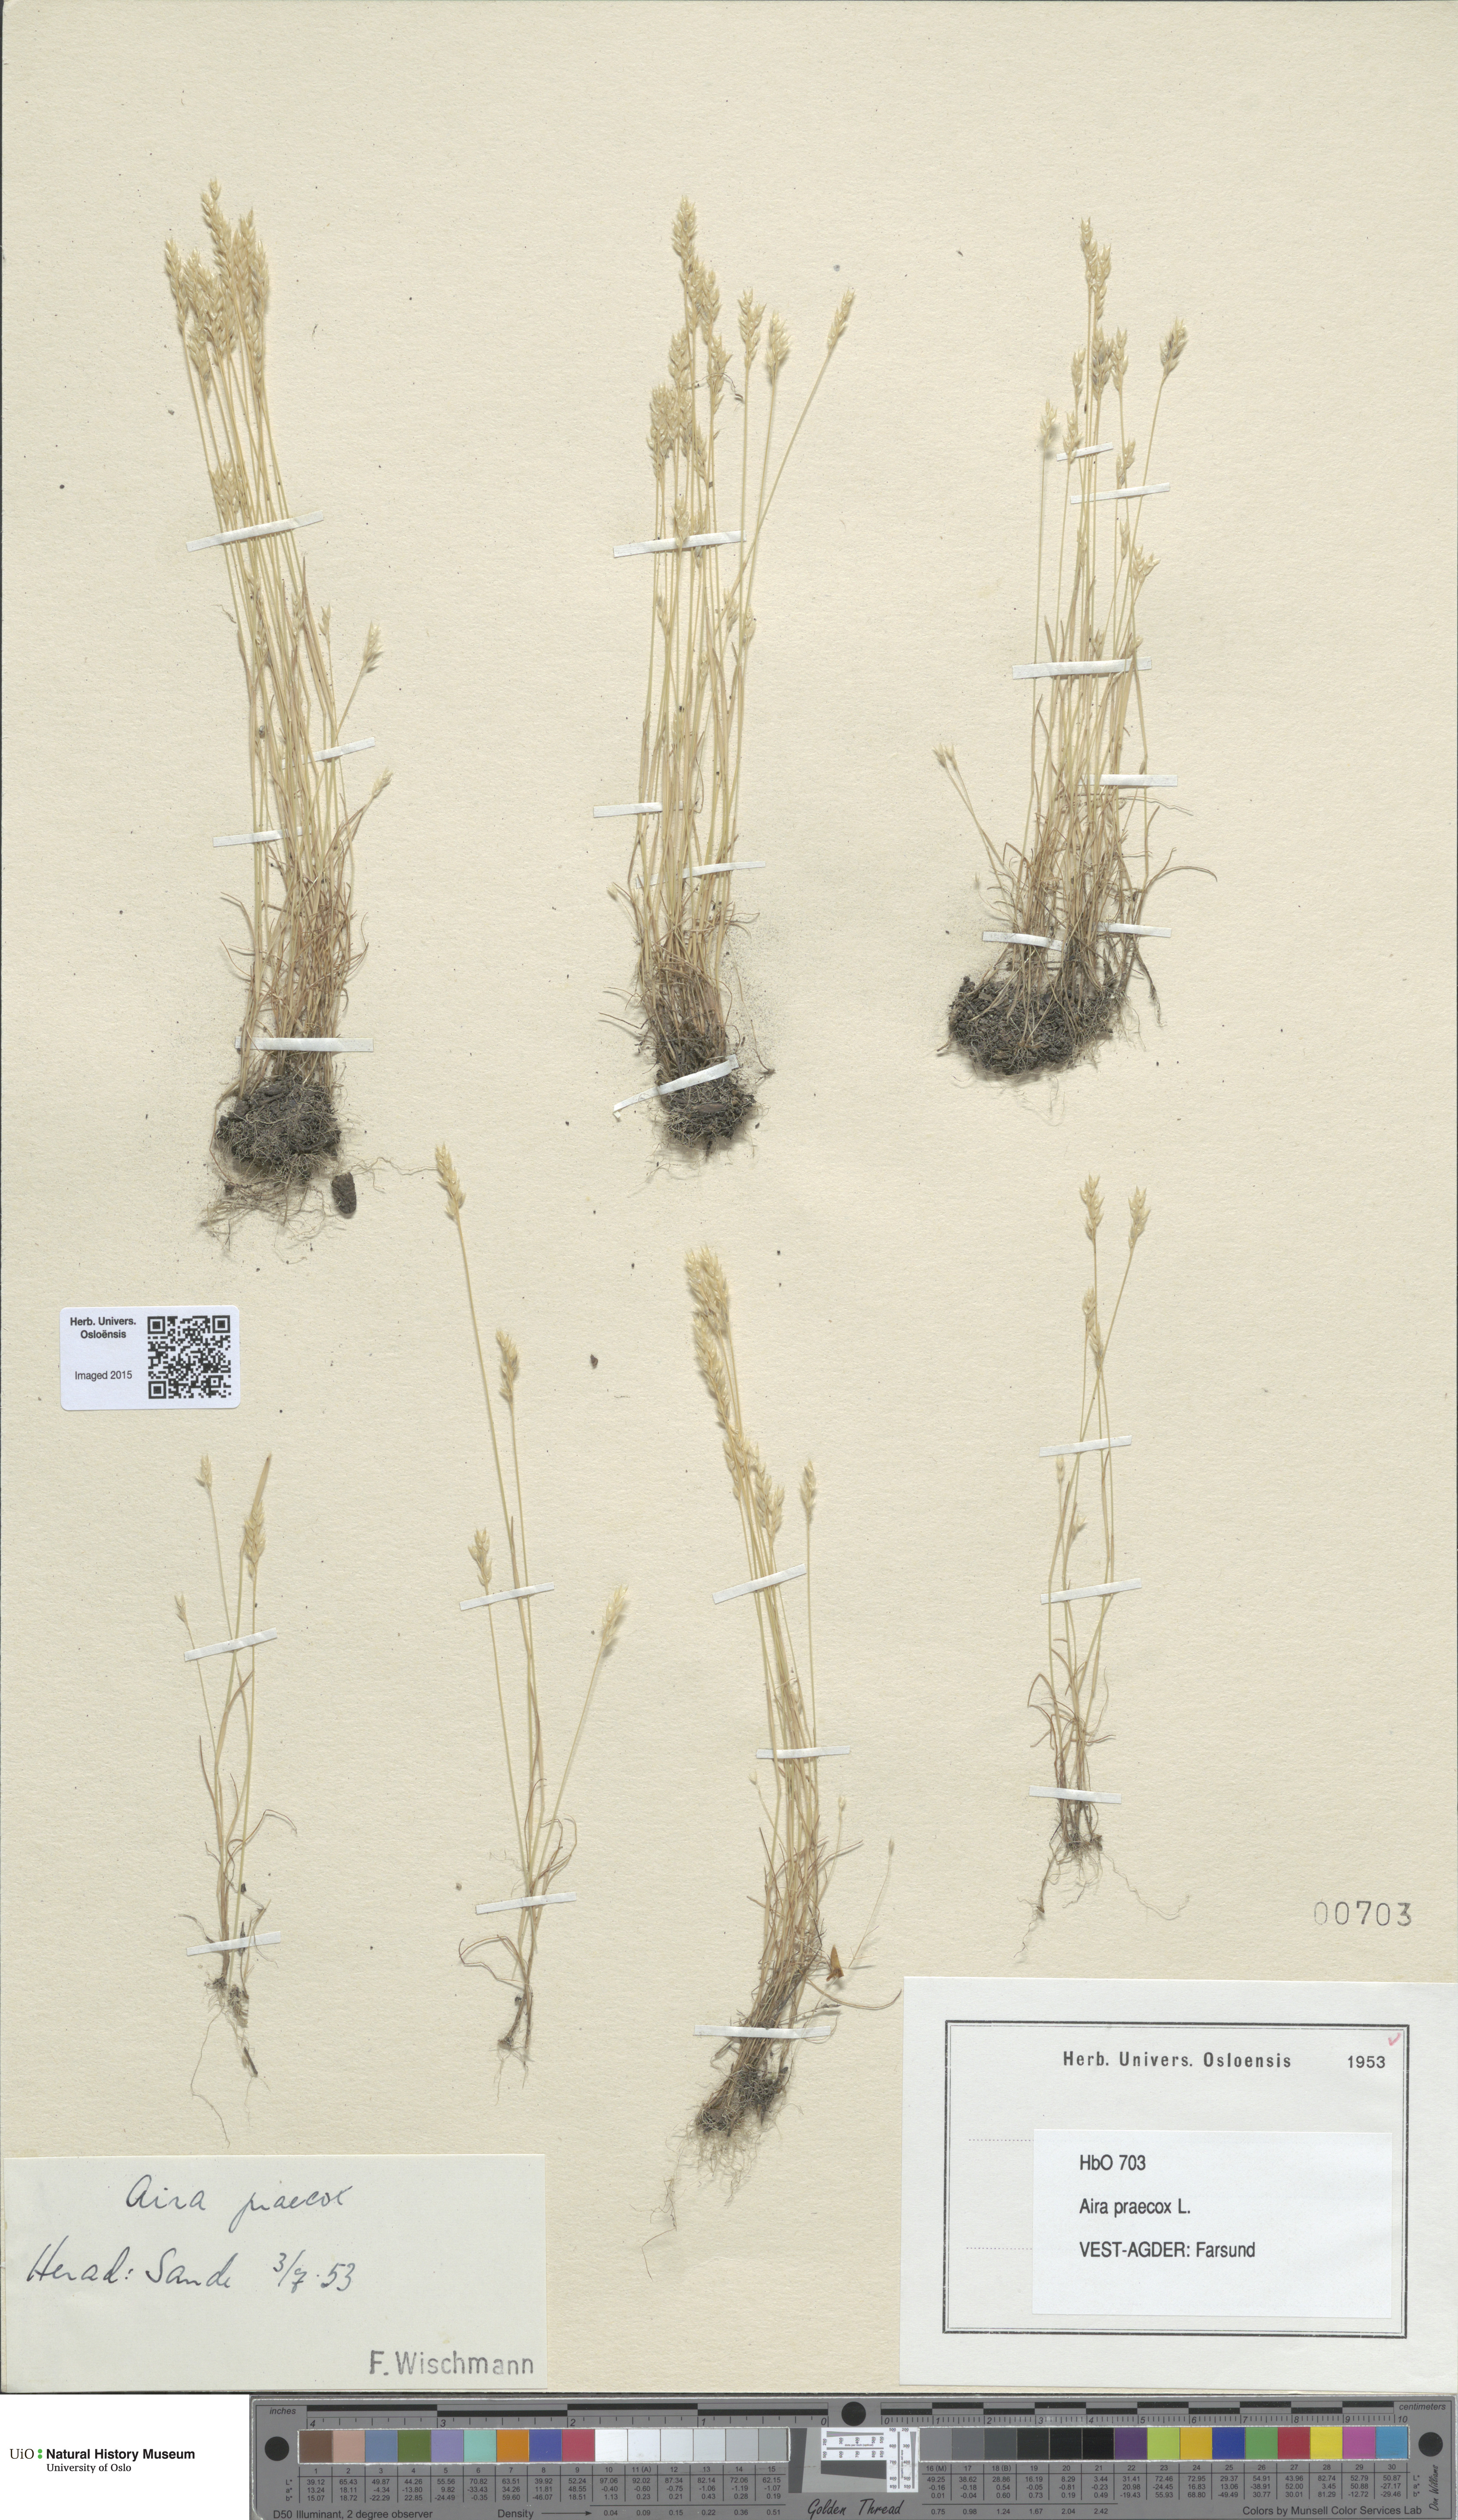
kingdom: Plantae
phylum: Tracheophyta
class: Liliopsida
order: Poales
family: Poaceae
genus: Aira
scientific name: Aira praecox
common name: Early hair-grass
